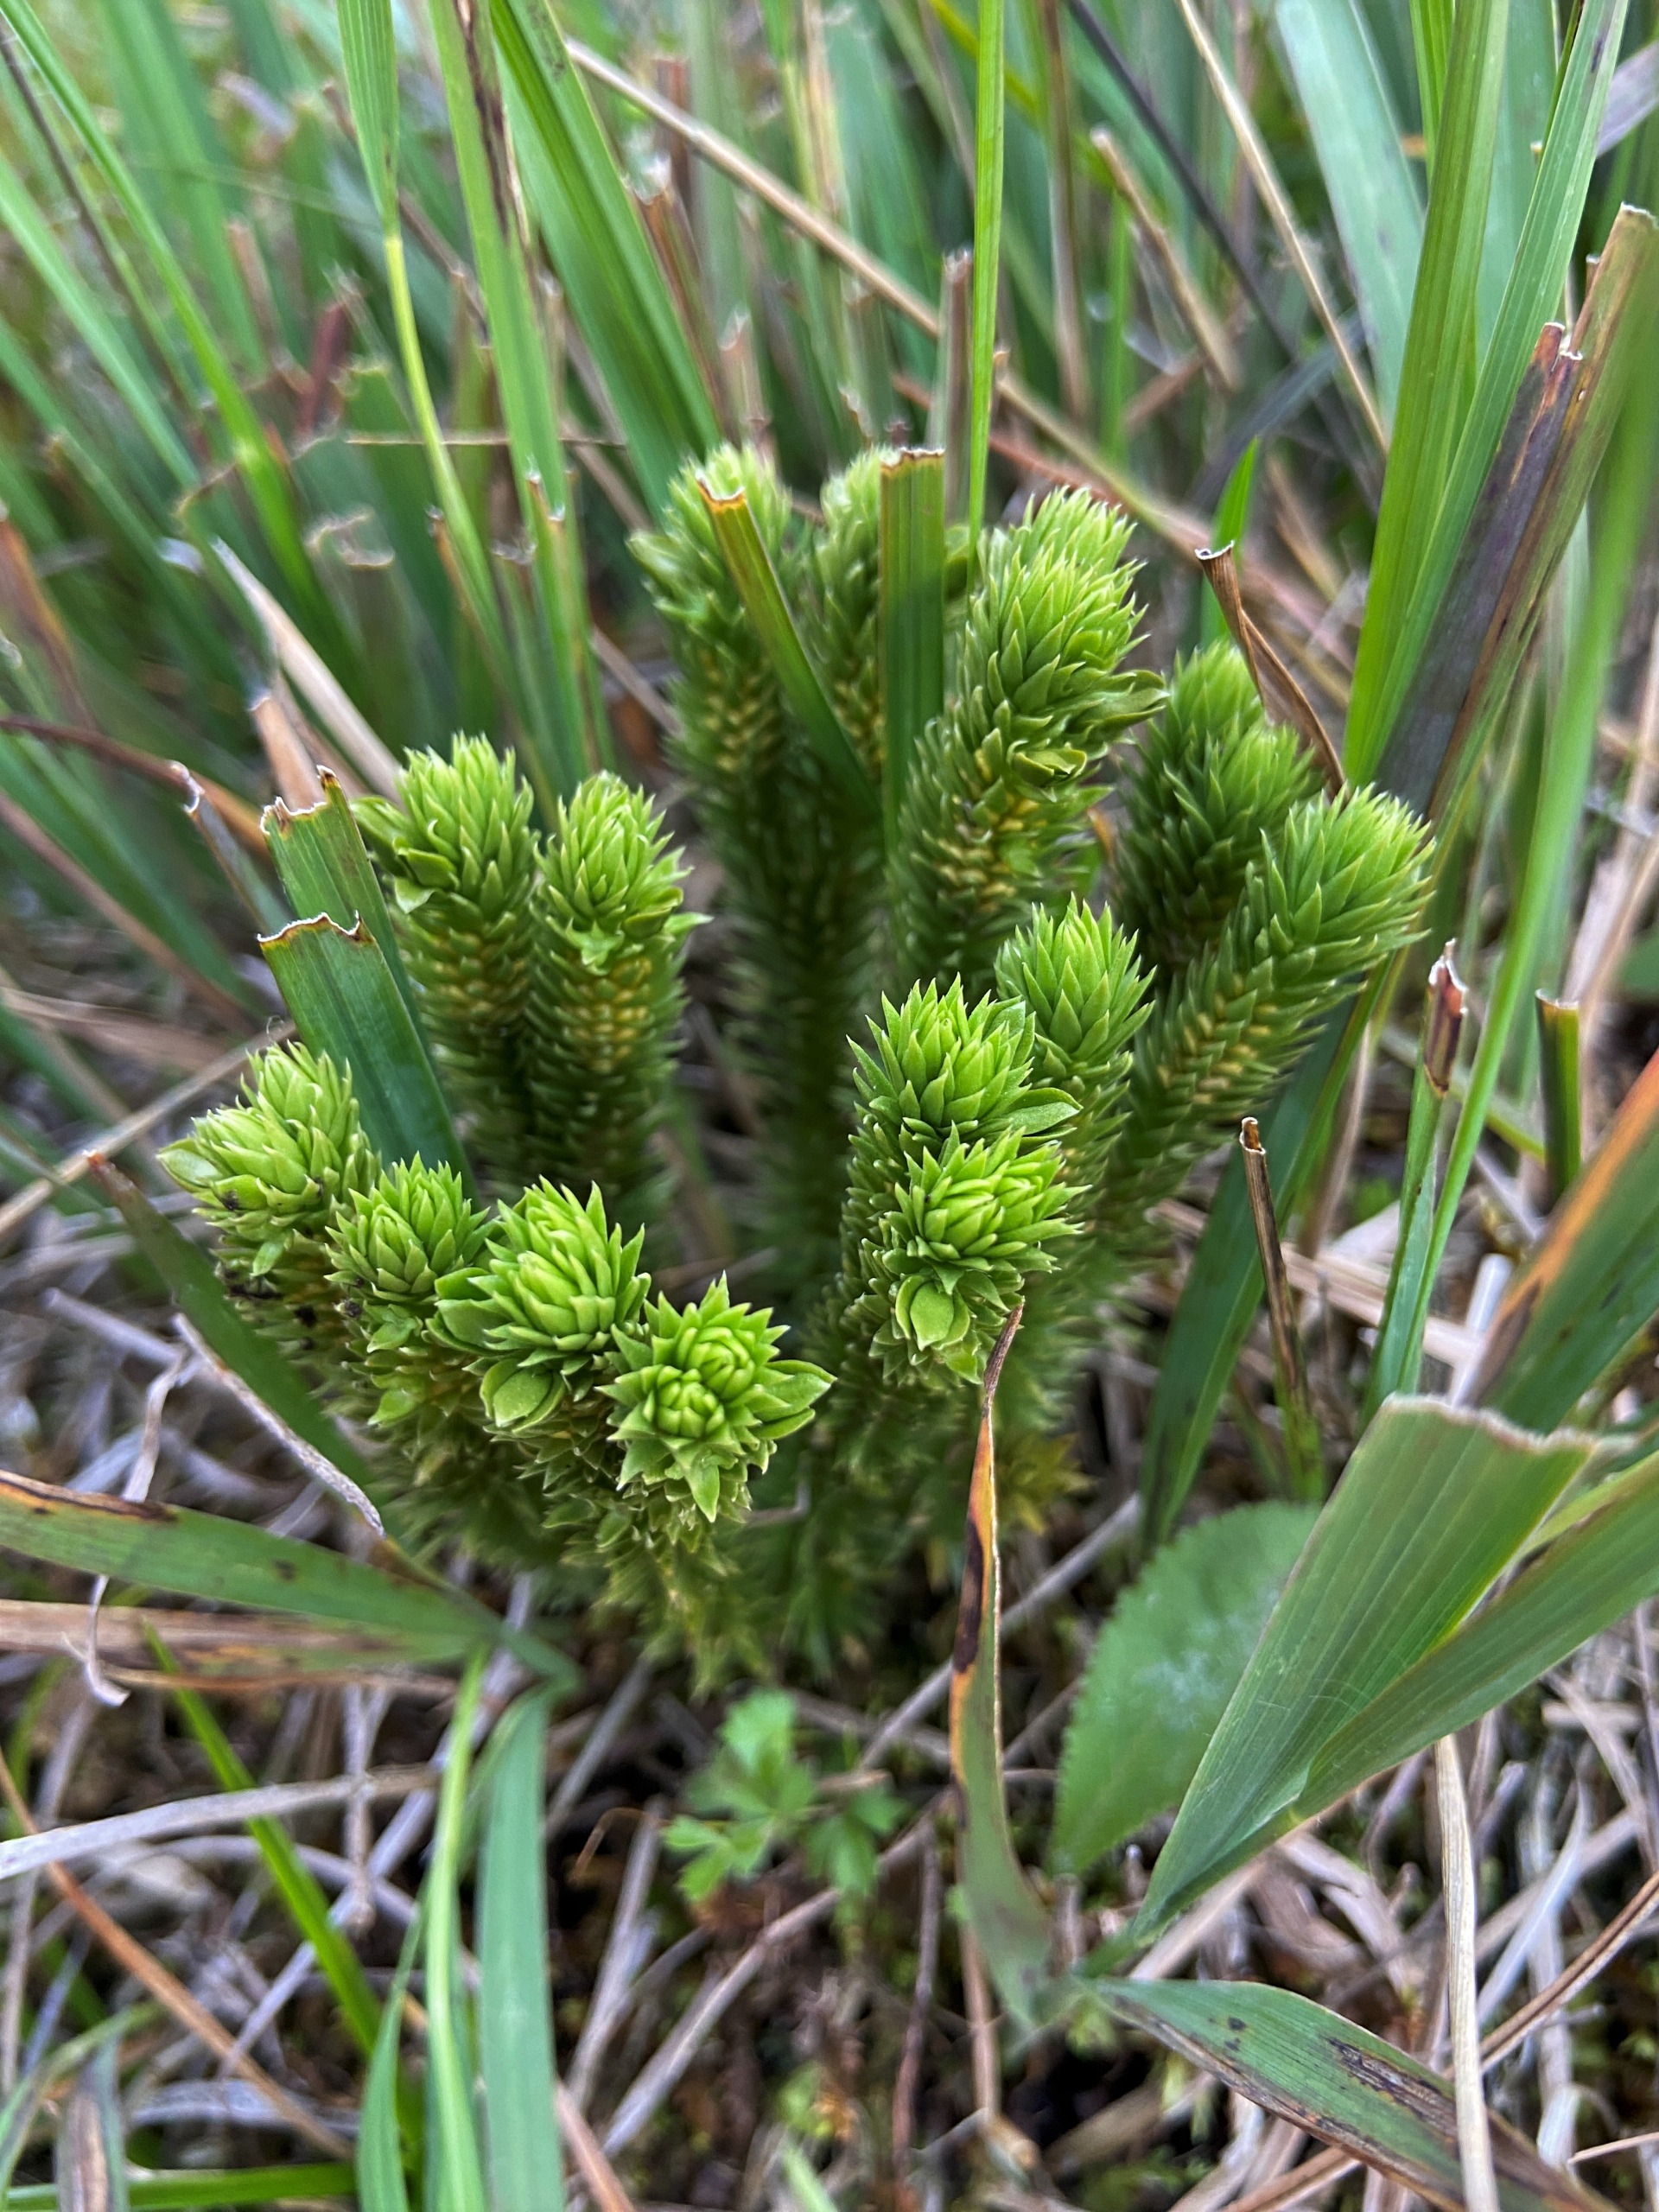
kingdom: Plantae
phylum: Tracheophyta
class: Lycopodiopsida
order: Lycopodiales
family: Lycopodiaceae
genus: Huperzia
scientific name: Huperzia selago
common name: Otteradet ulvefod
